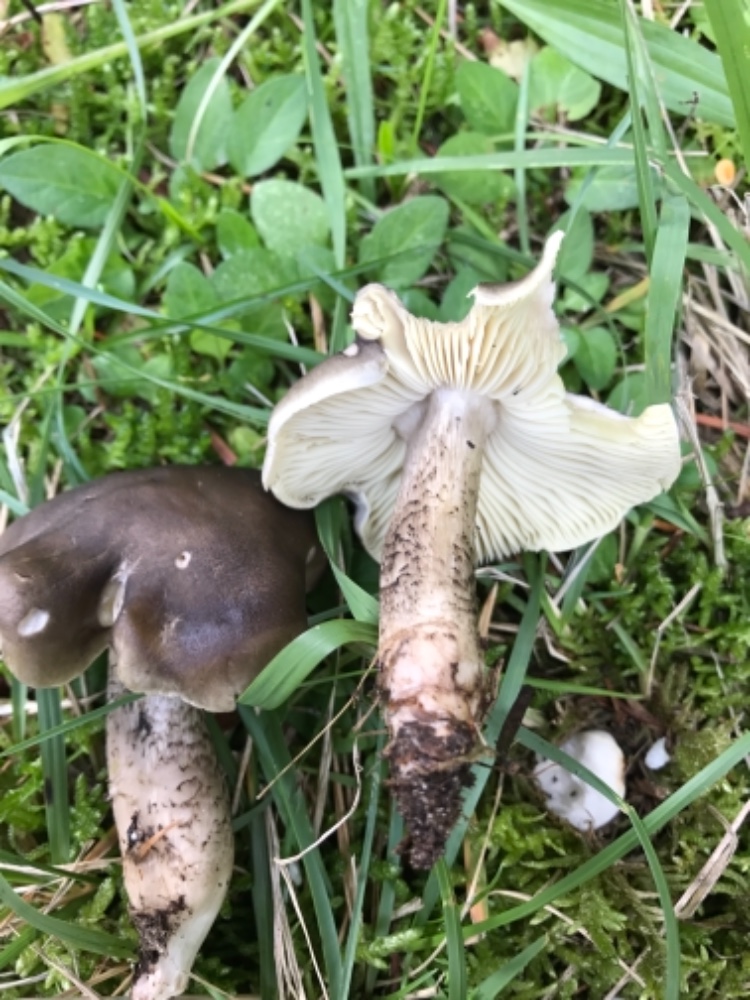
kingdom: Fungi
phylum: Basidiomycota
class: Agaricomycetes
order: Agaricales
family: Tricholomataceae
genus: Tricholoma
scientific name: Tricholoma saponaceum
